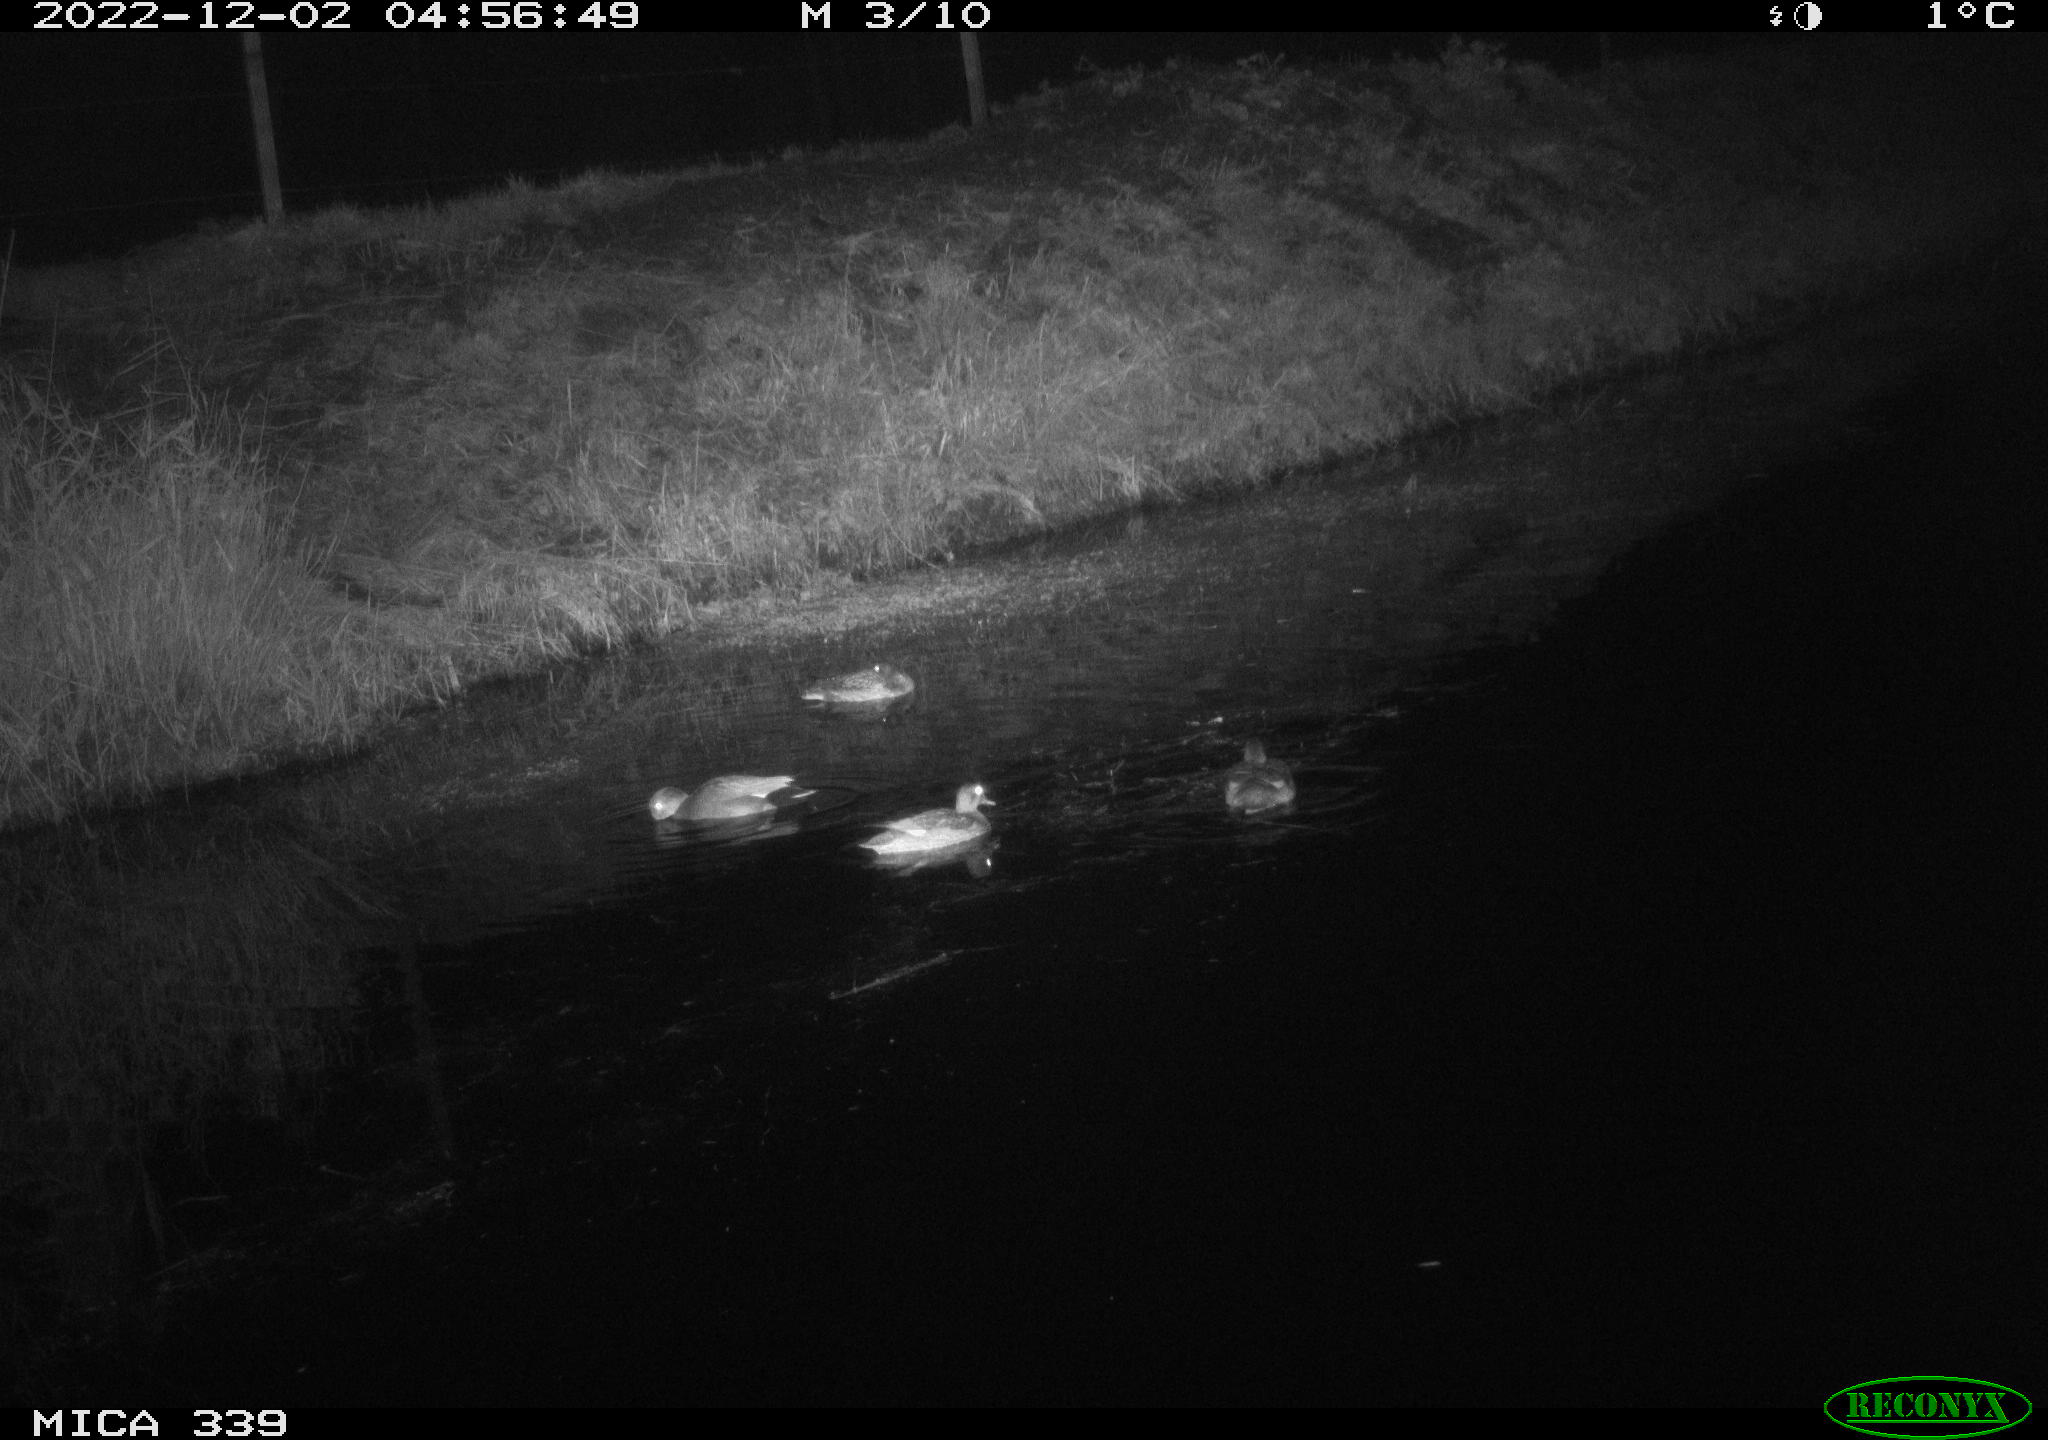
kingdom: Animalia
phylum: Chordata
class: Aves
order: Anseriformes
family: Anatidae
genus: Anas
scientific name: Anas
